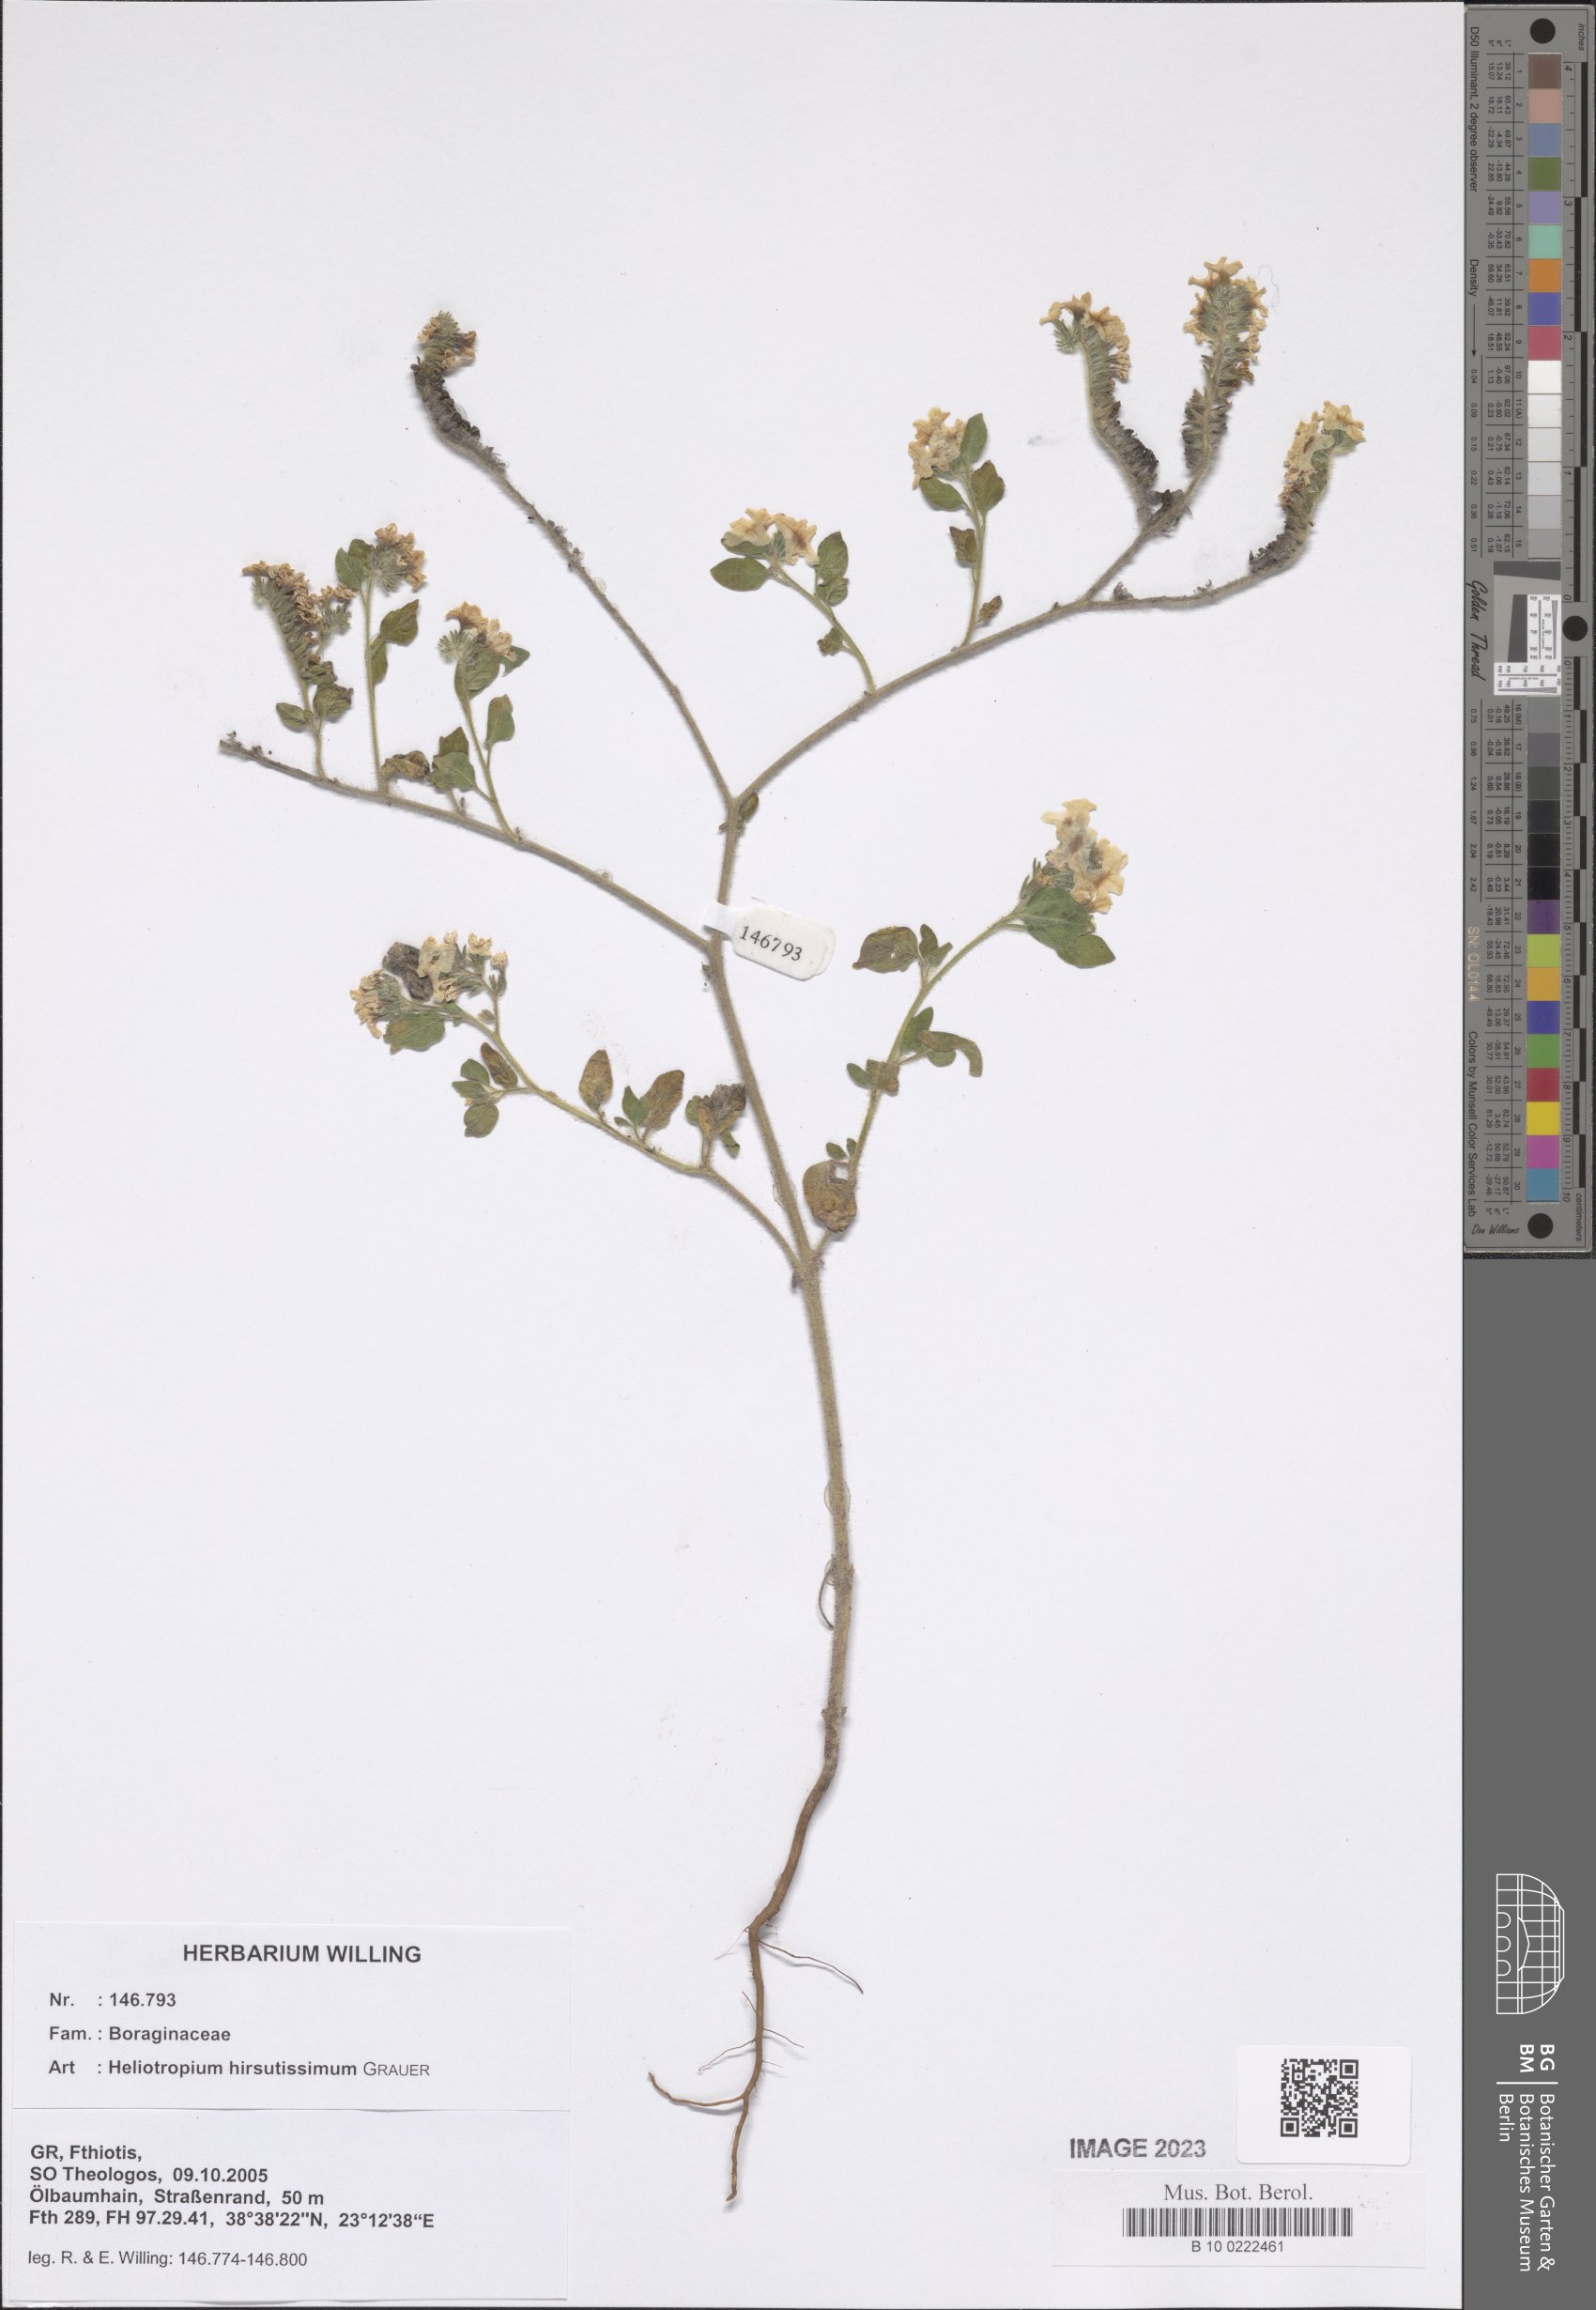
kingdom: Plantae
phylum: Tracheophyta
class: Magnoliopsida
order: Boraginales
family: Heliotropiaceae
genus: Heliotropium
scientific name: Heliotropium hirsutissimum
